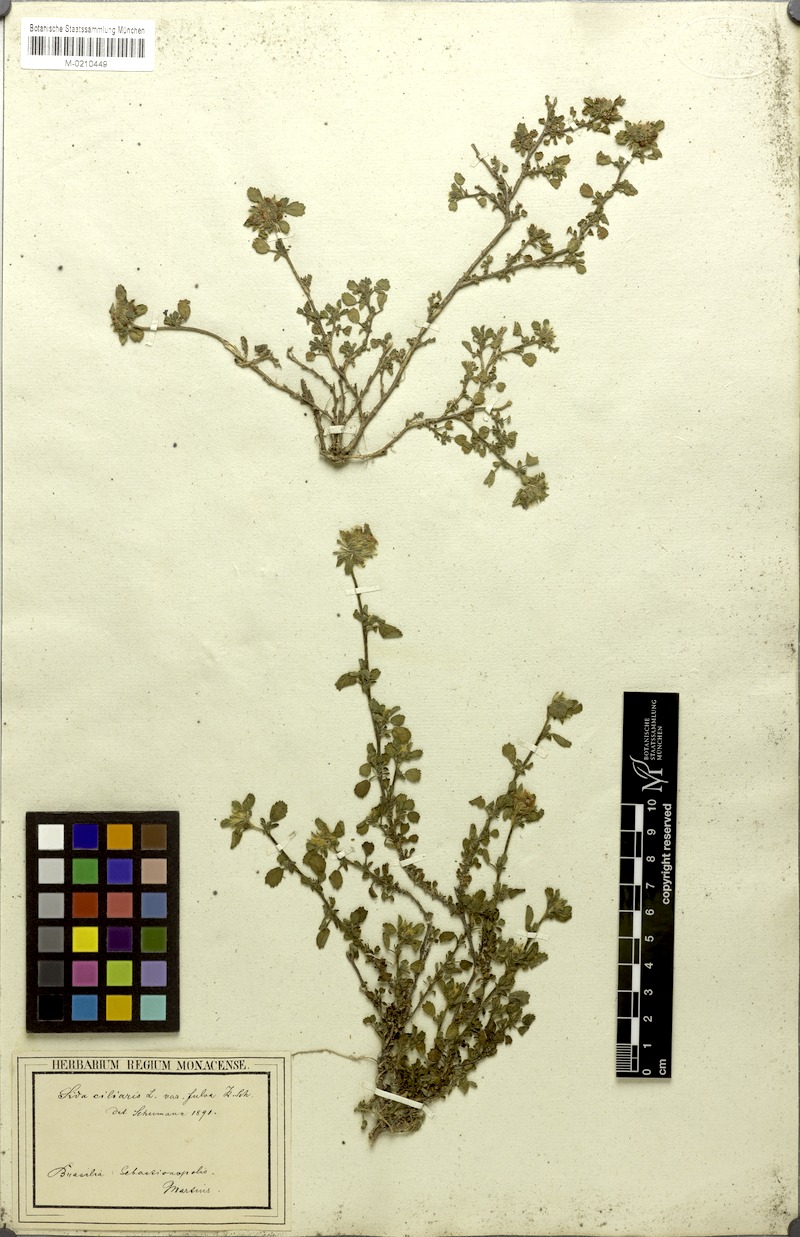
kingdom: Plantae
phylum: Tracheophyta
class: Magnoliopsida
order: Malvales
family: Malvaceae
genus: Sida
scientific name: Sida ciliaris
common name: Bracted fanpetals
